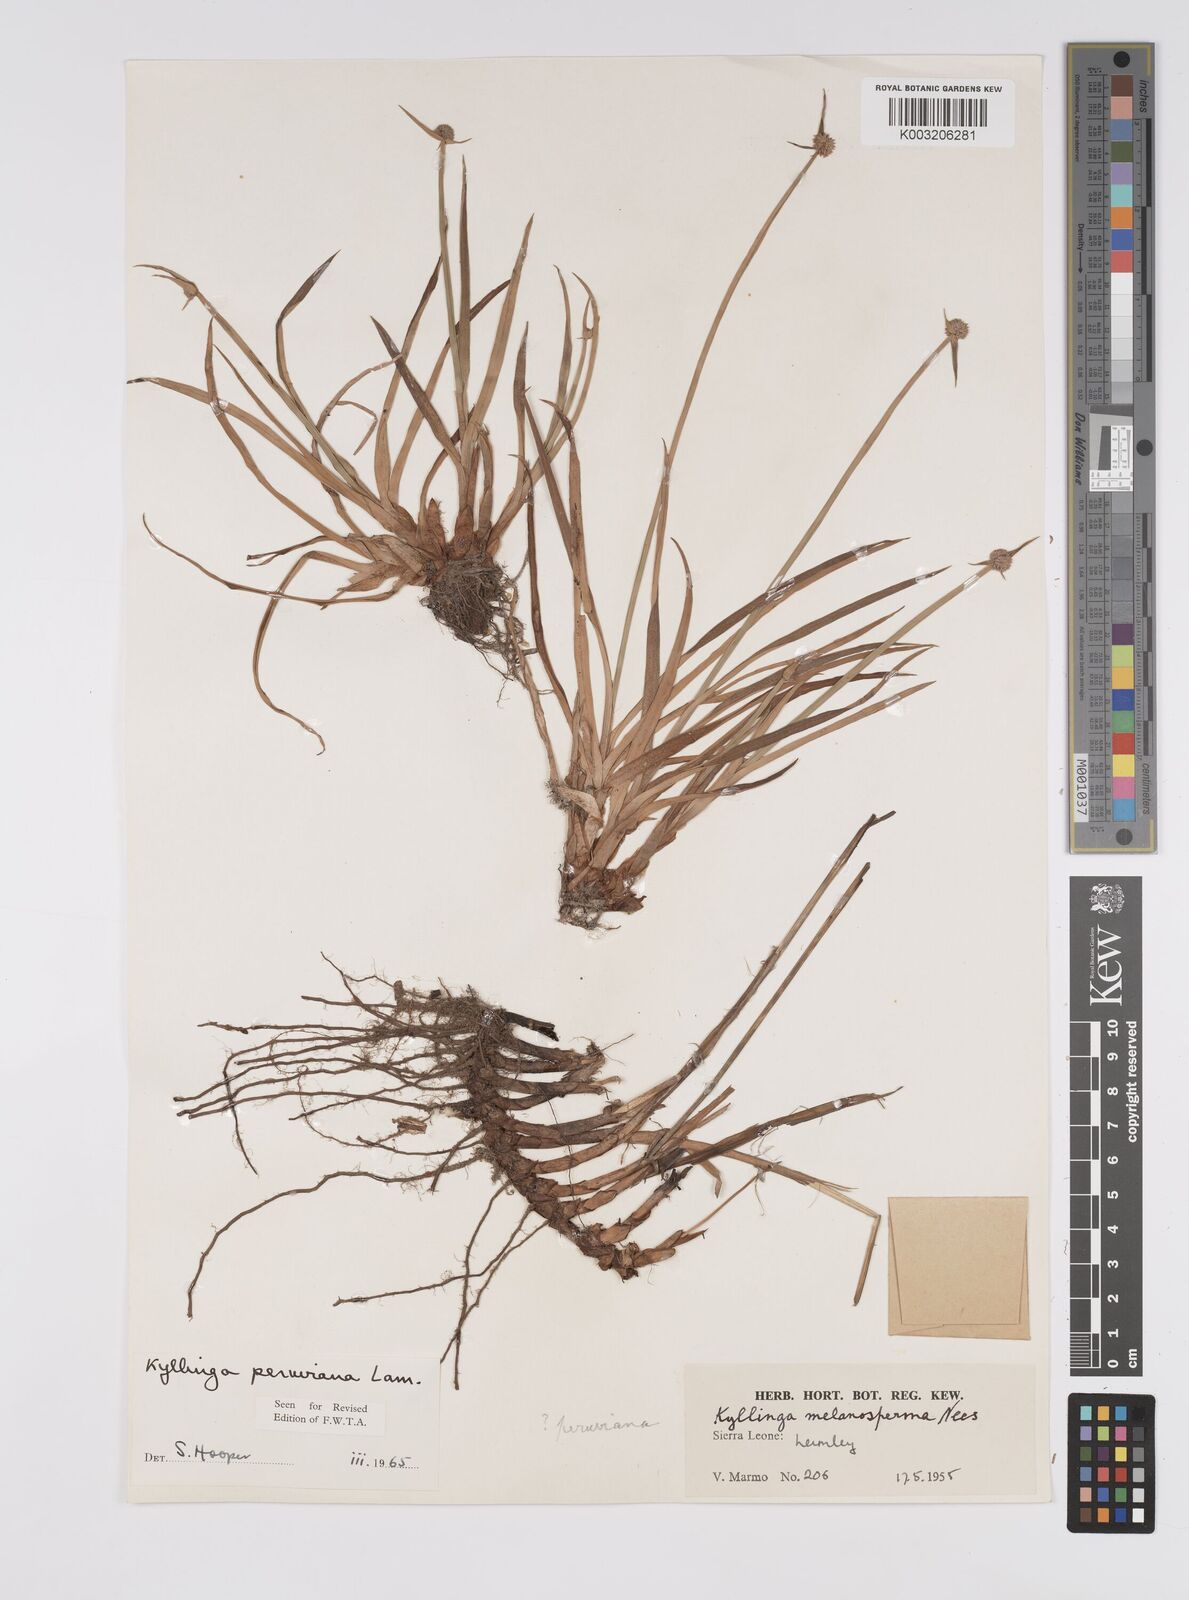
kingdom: Plantae
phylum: Tracheophyta
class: Liliopsida
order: Poales
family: Cyperaceae
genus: Cyperus
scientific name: Cyperus obtusatus
